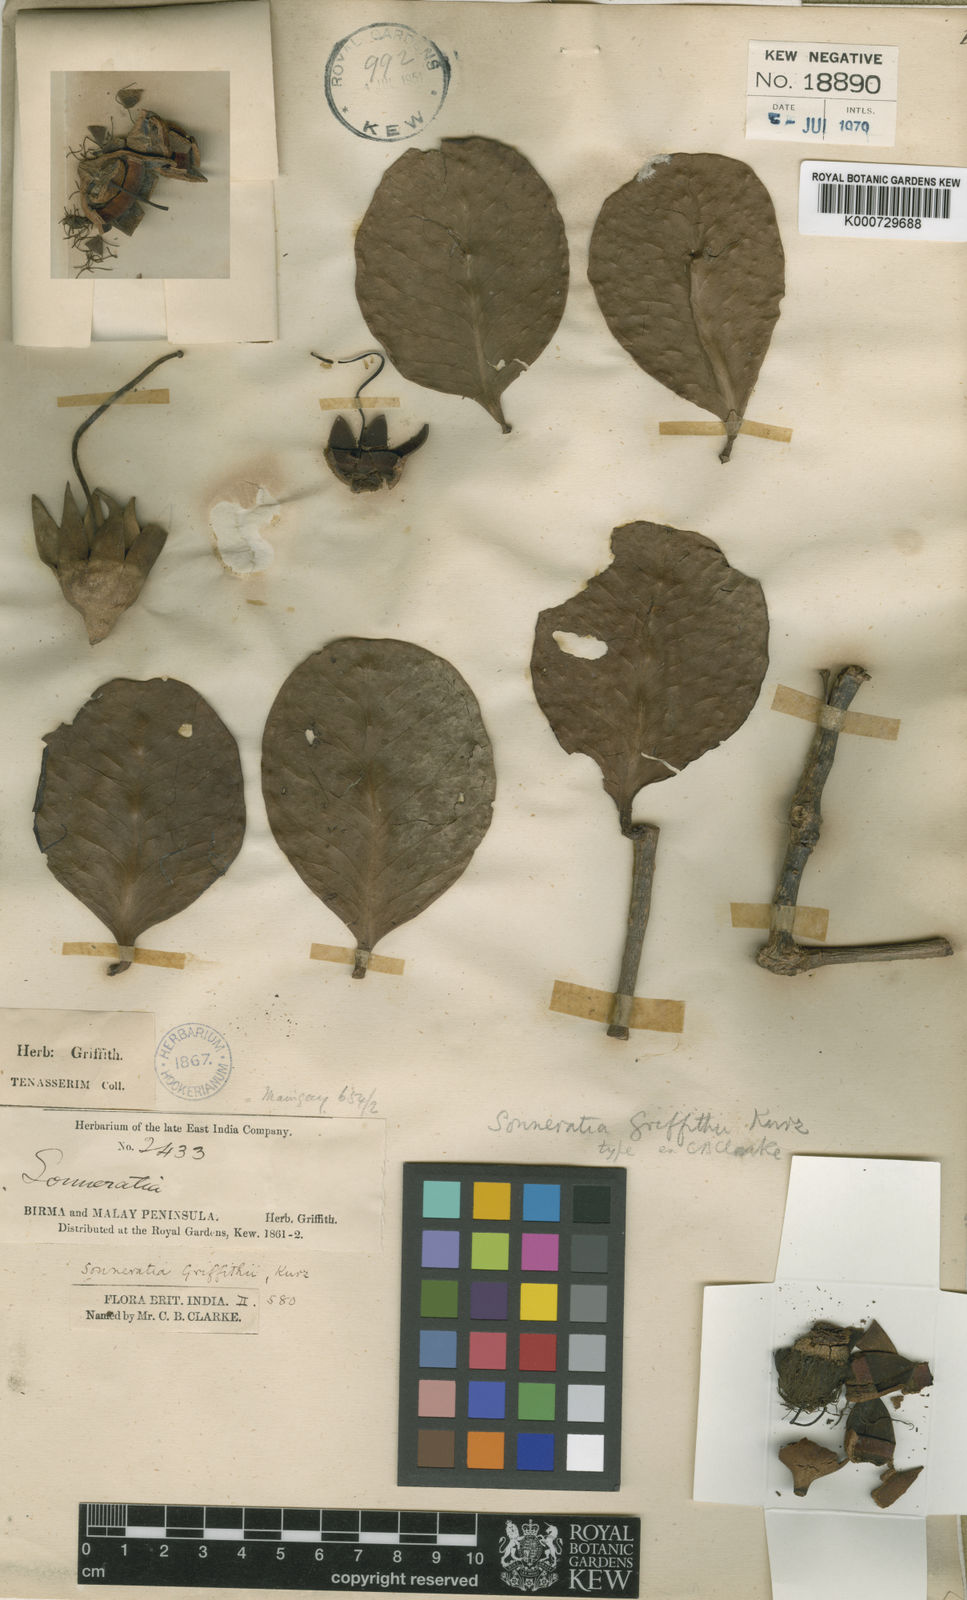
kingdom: Plantae
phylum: Tracheophyta
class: Magnoliopsida
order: Myrtales
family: Lythraceae
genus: Sonneratia
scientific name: Sonneratia griffithii
